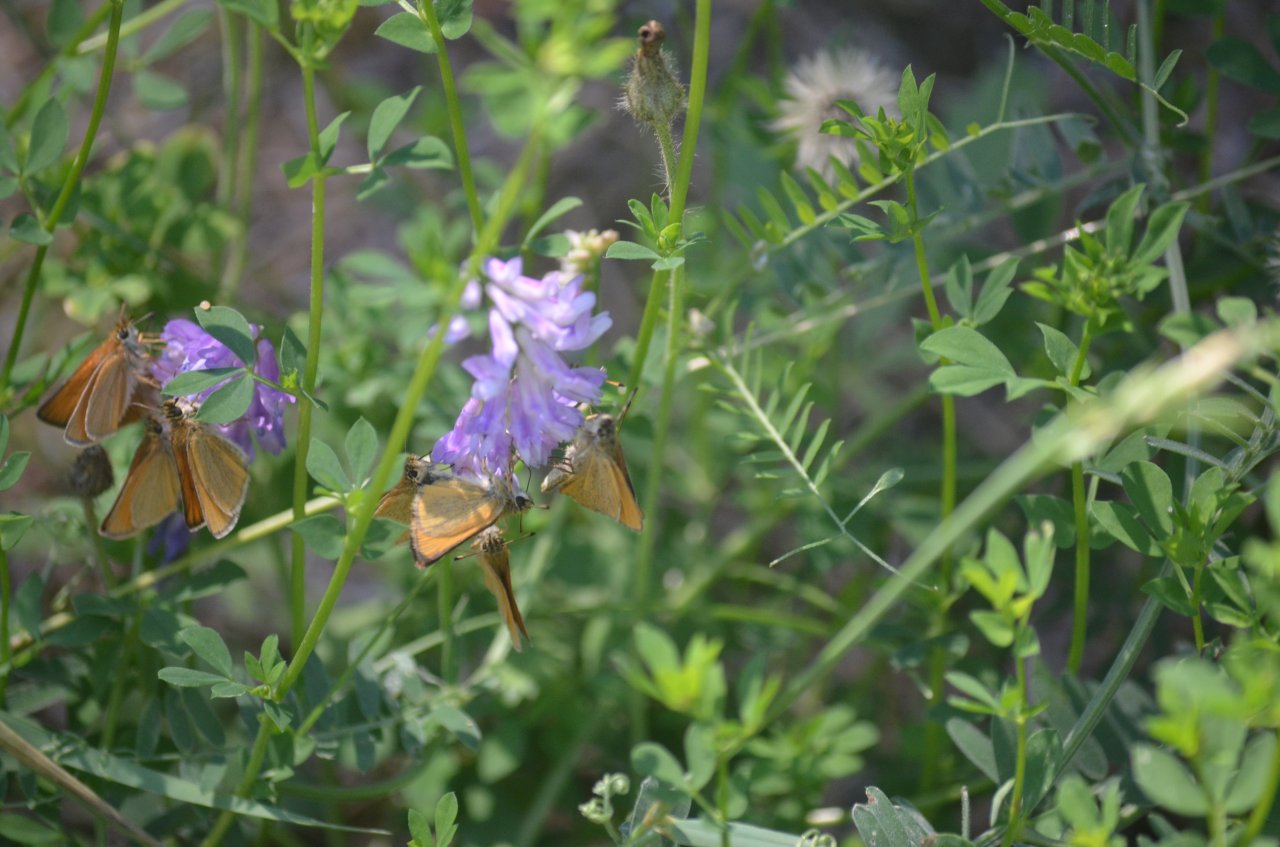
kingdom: Animalia
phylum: Arthropoda
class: Insecta
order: Lepidoptera
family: Hesperiidae
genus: Thymelicus
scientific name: Thymelicus lineola
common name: European Skipper
